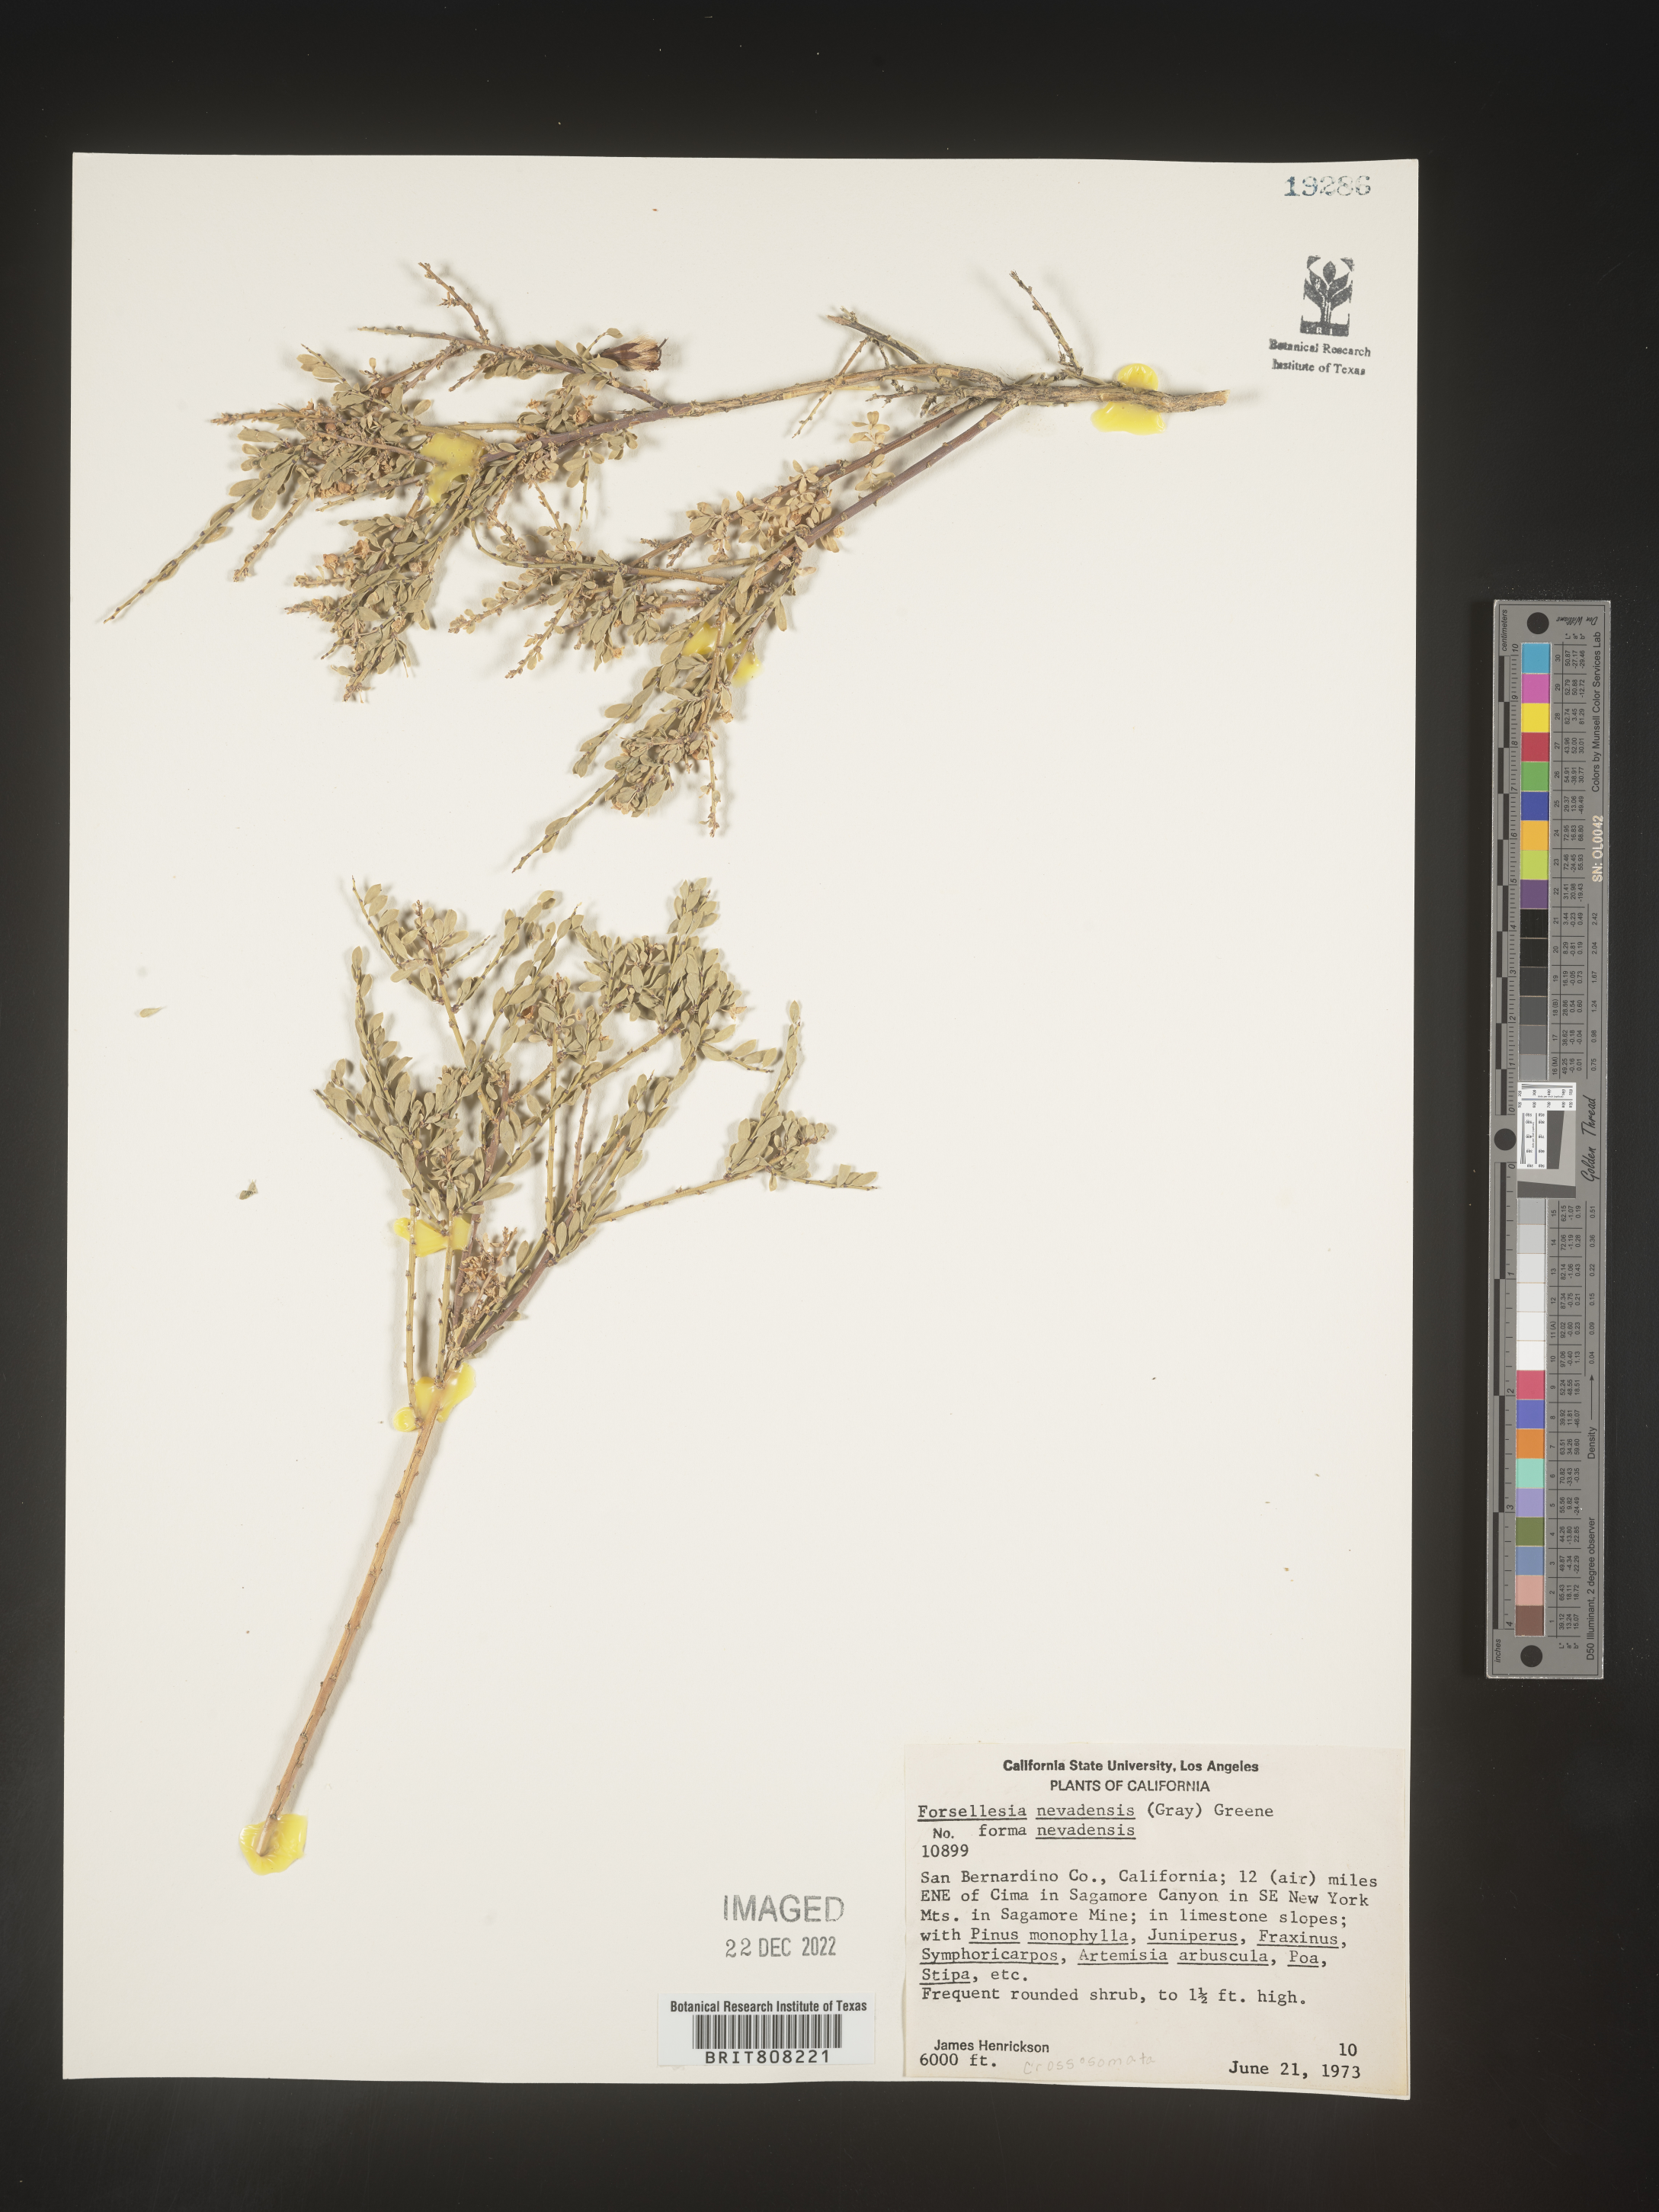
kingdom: Plantae
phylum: Tracheophyta
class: Magnoliopsida
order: Crossosomatales
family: Crossosomataceae
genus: Glossopetalon
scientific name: Glossopetalon
